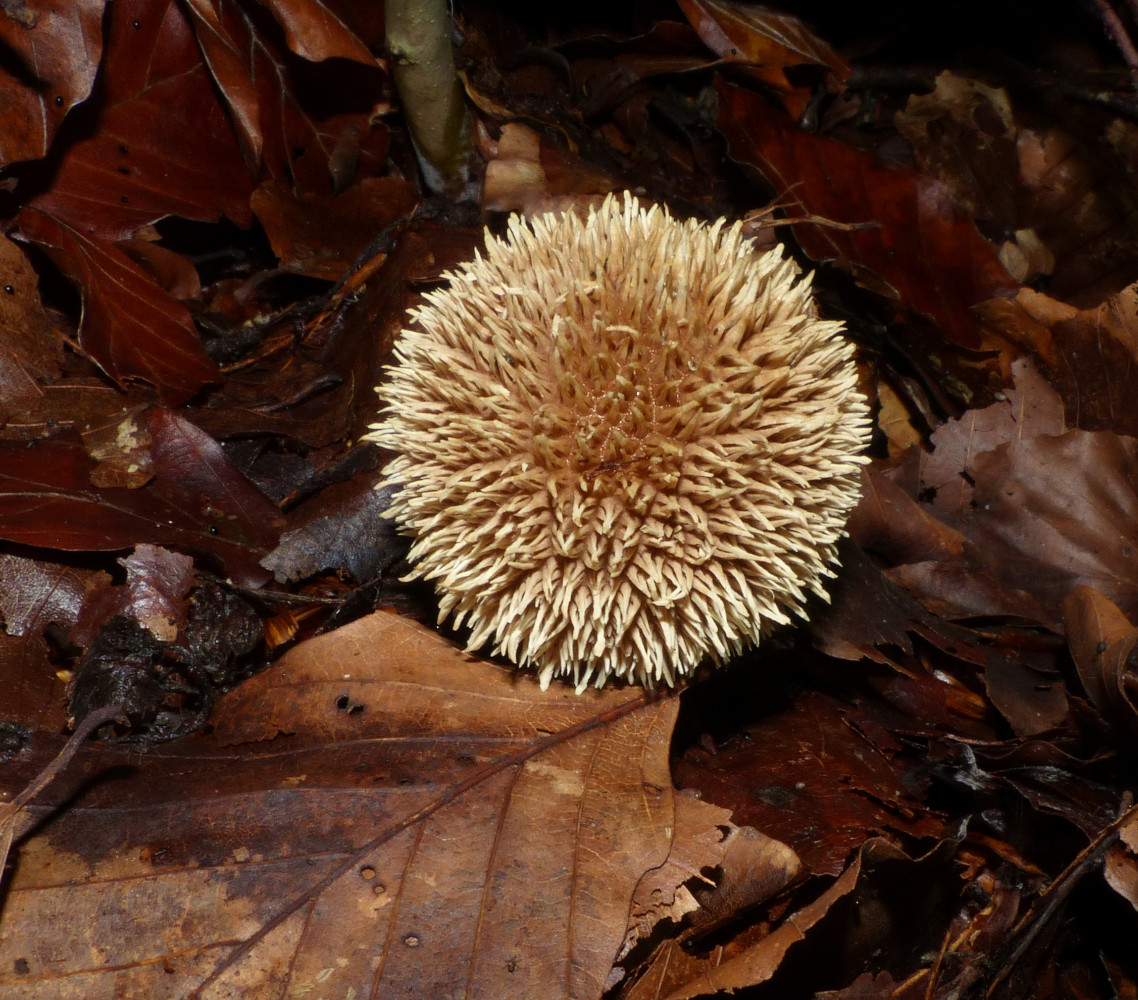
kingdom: Fungi
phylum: Basidiomycota
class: Agaricomycetes
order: Agaricales
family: Lycoperdaceae
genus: Lycoperdon
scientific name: Lycoperdon echinatum
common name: pindsvine-støvbold
